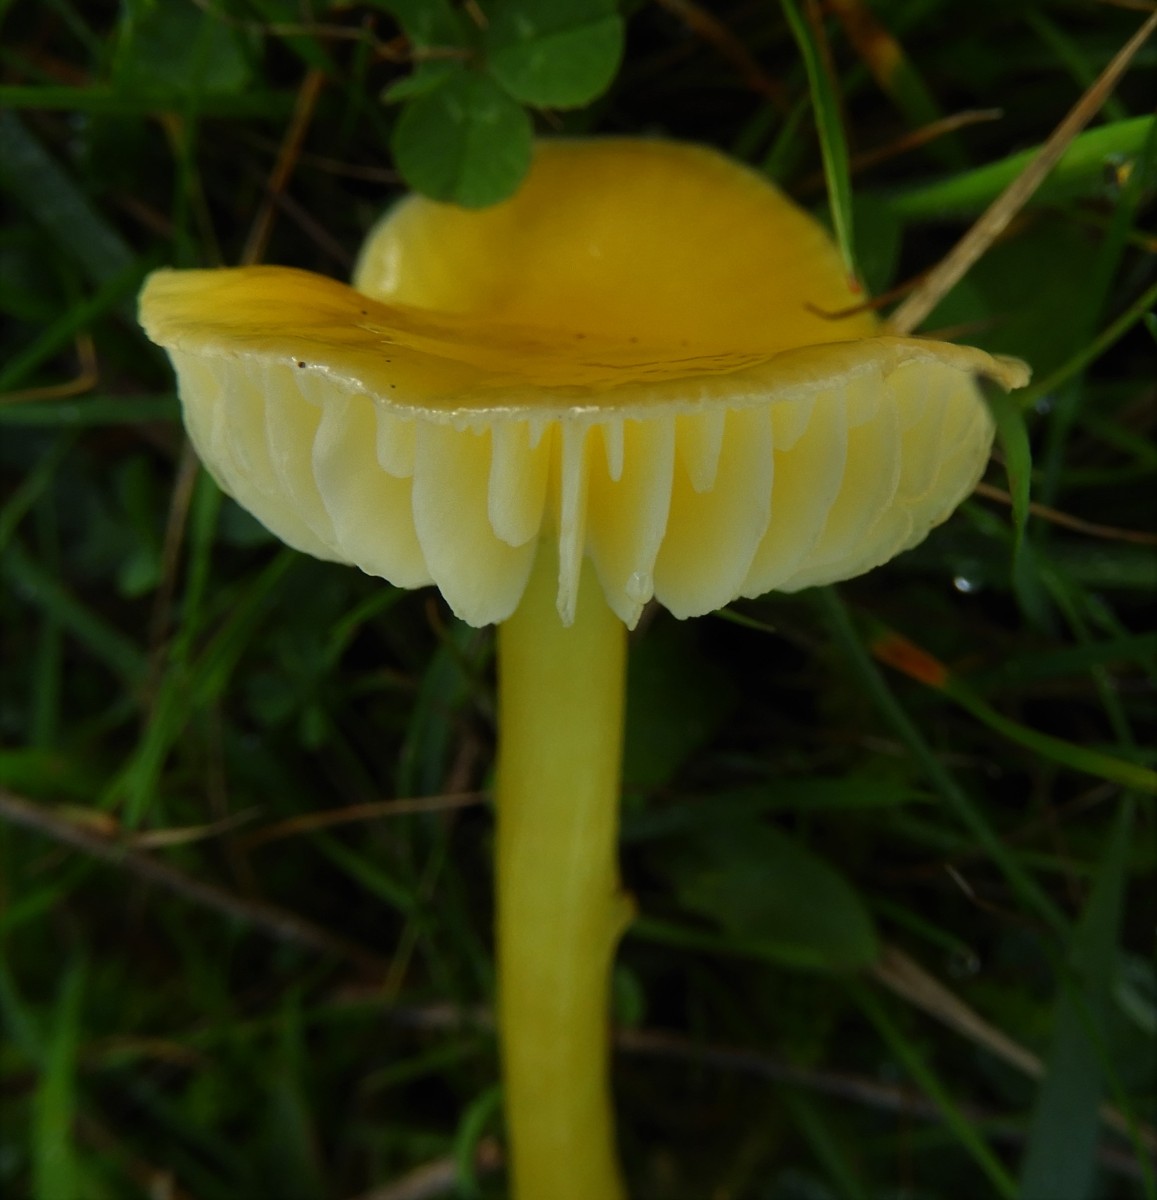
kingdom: Fungi
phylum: Basidiomycota
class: Agaricomycetes
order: Agaricales
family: Hygrophoraceae
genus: Hygrocybe
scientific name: Hygrocybe chlorophana
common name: gul vokshat
